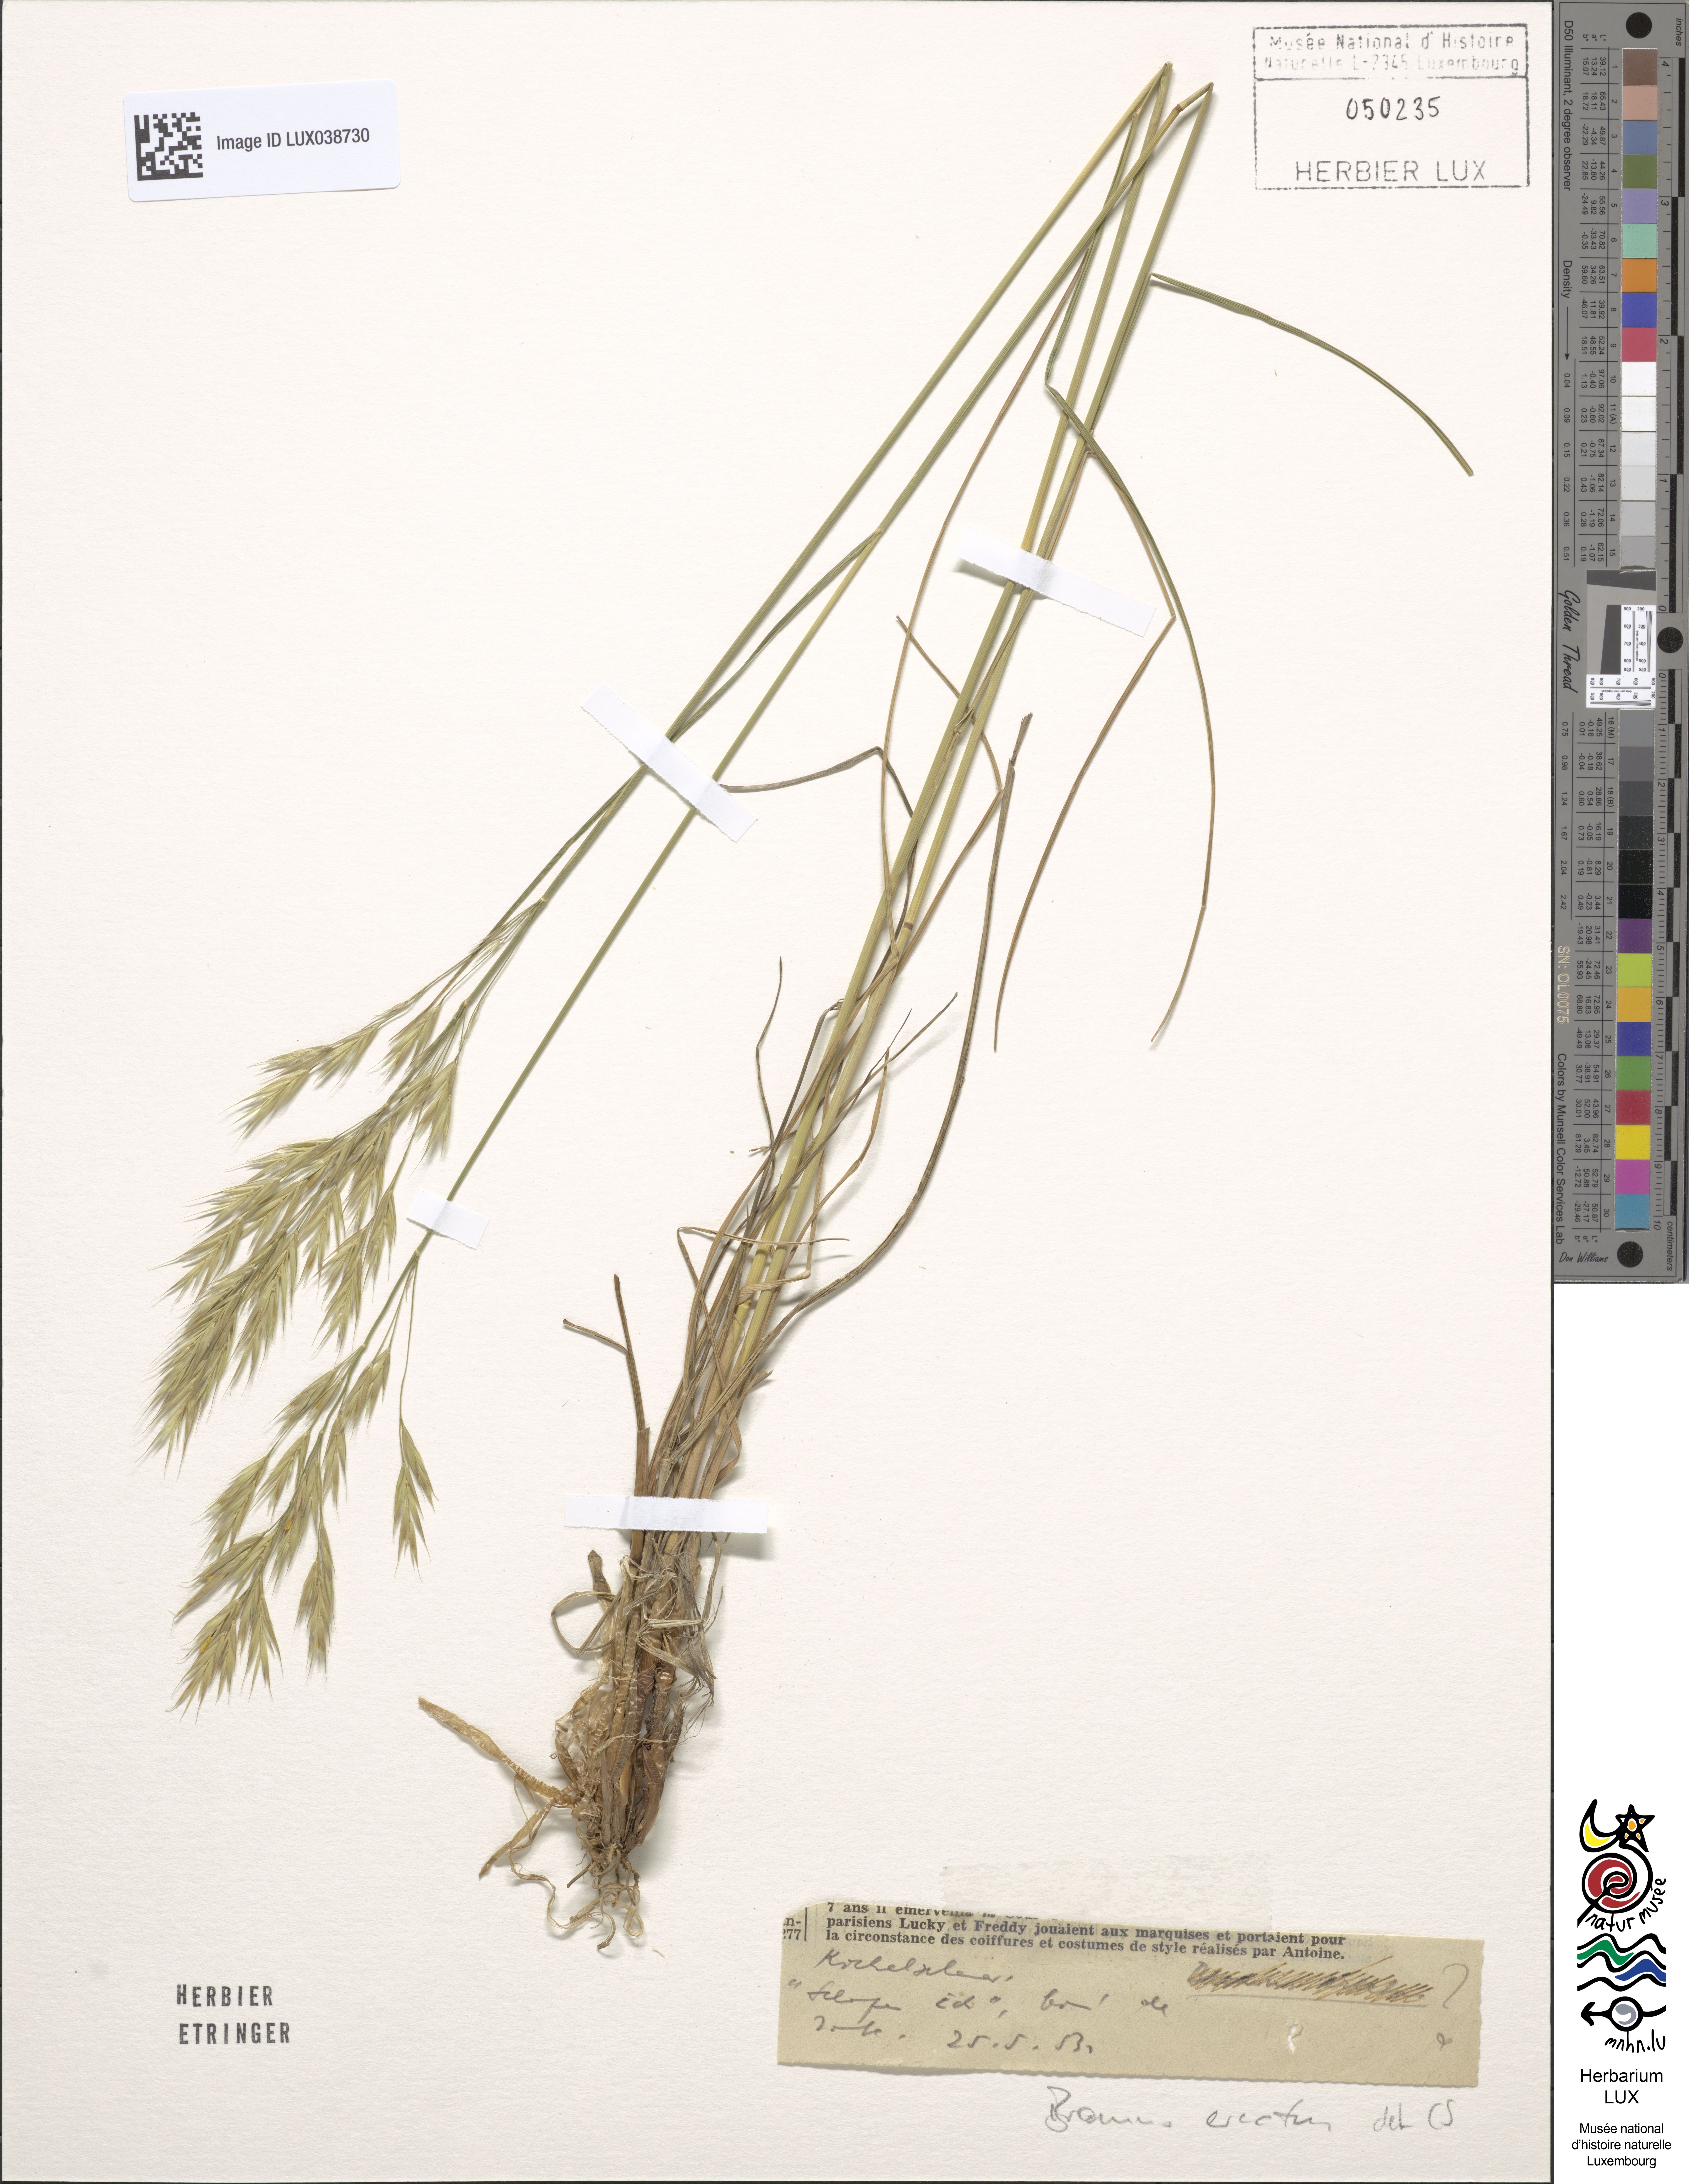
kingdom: Plantae
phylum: Tracheophyta
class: Liliopsida
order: Poales
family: Poaceae
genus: Bromus
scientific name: Bromus erectus
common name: Erect brome
